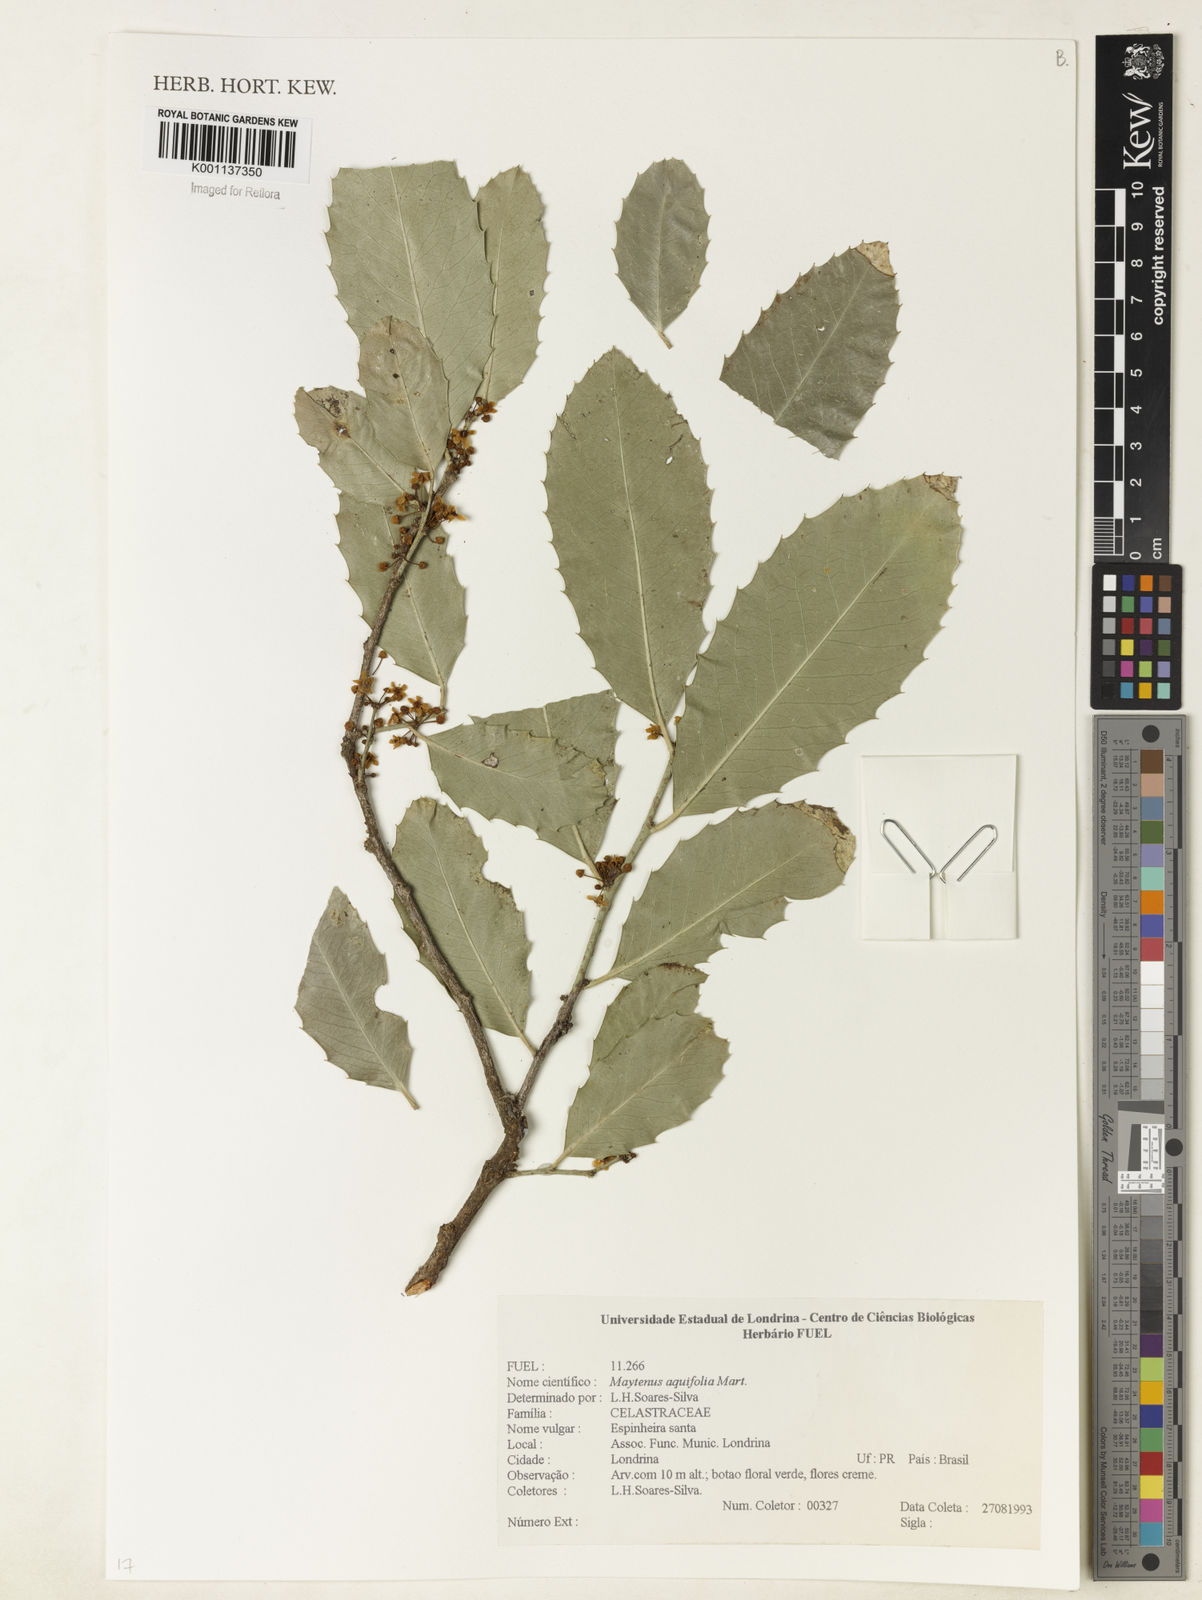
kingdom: Plantae
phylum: Tracheophyta
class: Magnoliopsida
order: Celastrales
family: Celastraceae
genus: Monteverdia
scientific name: Monteverdia aquifolium
